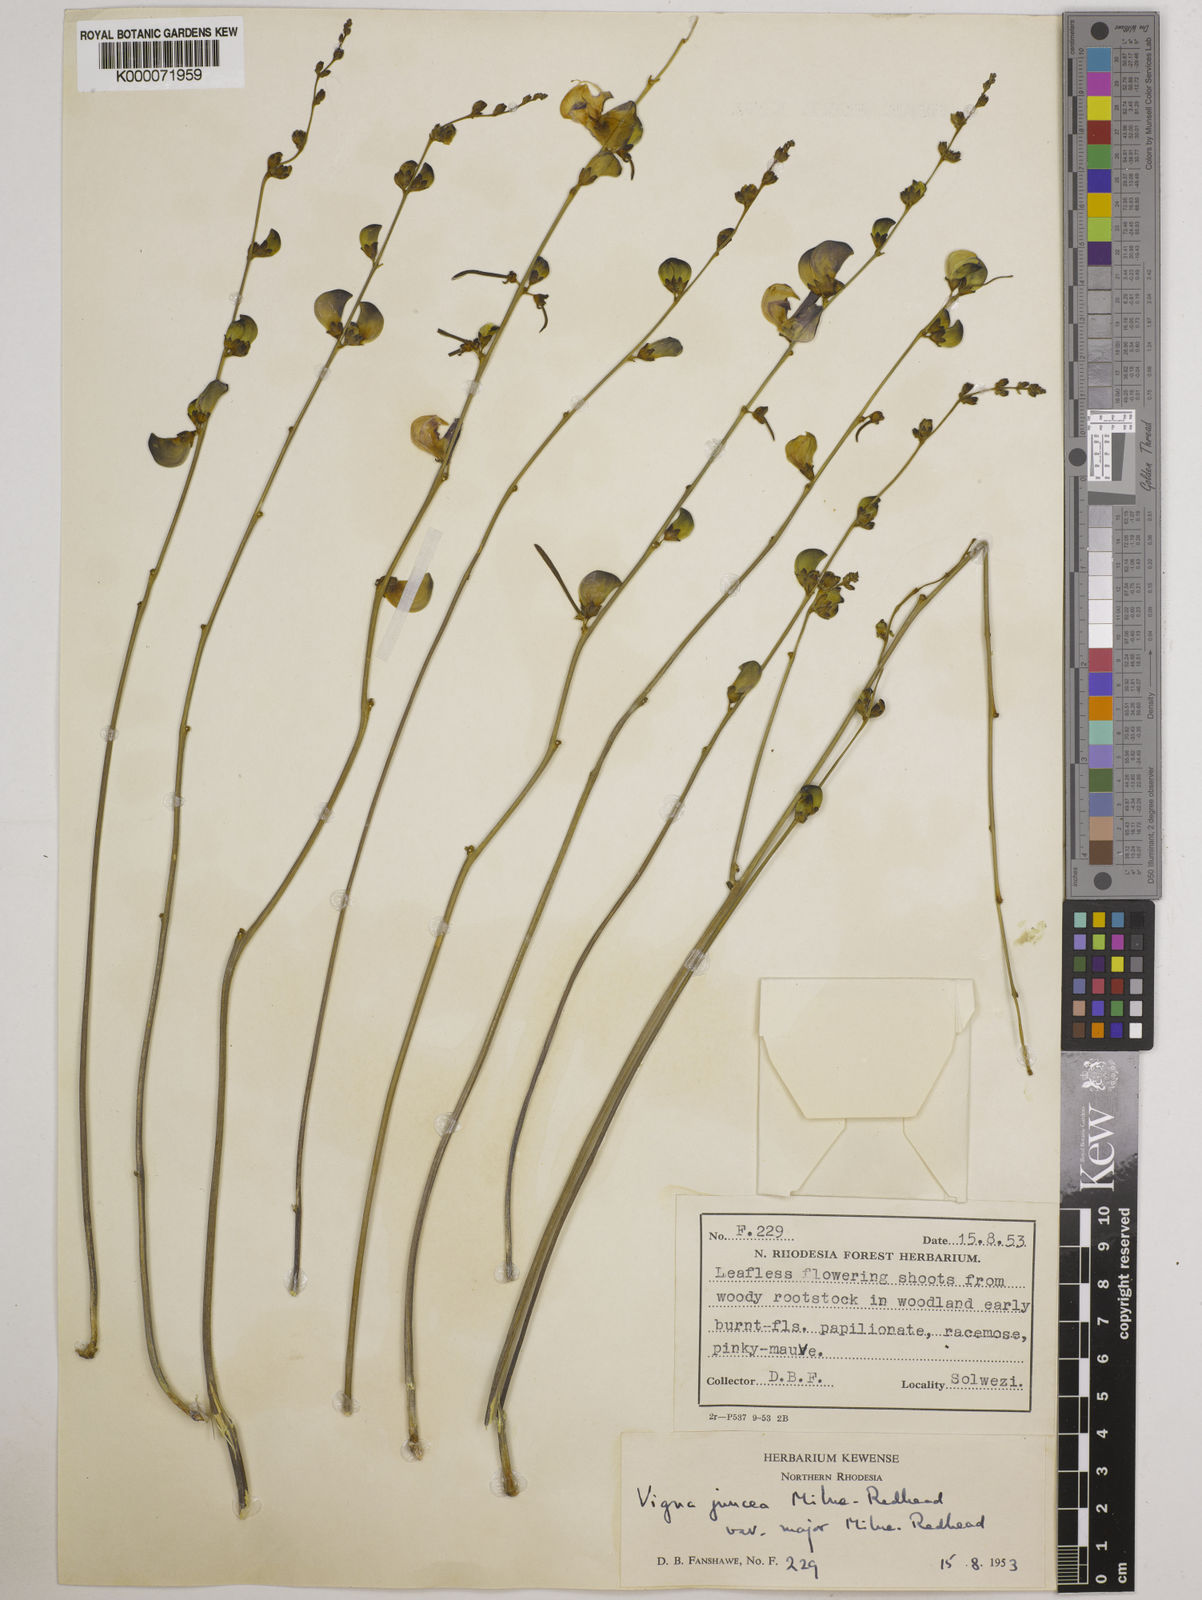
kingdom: Plantae
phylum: Tracheophyta
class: Magnoliopsida
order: Fabales
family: Fabaceae
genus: Vigna
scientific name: Vigna juncea
